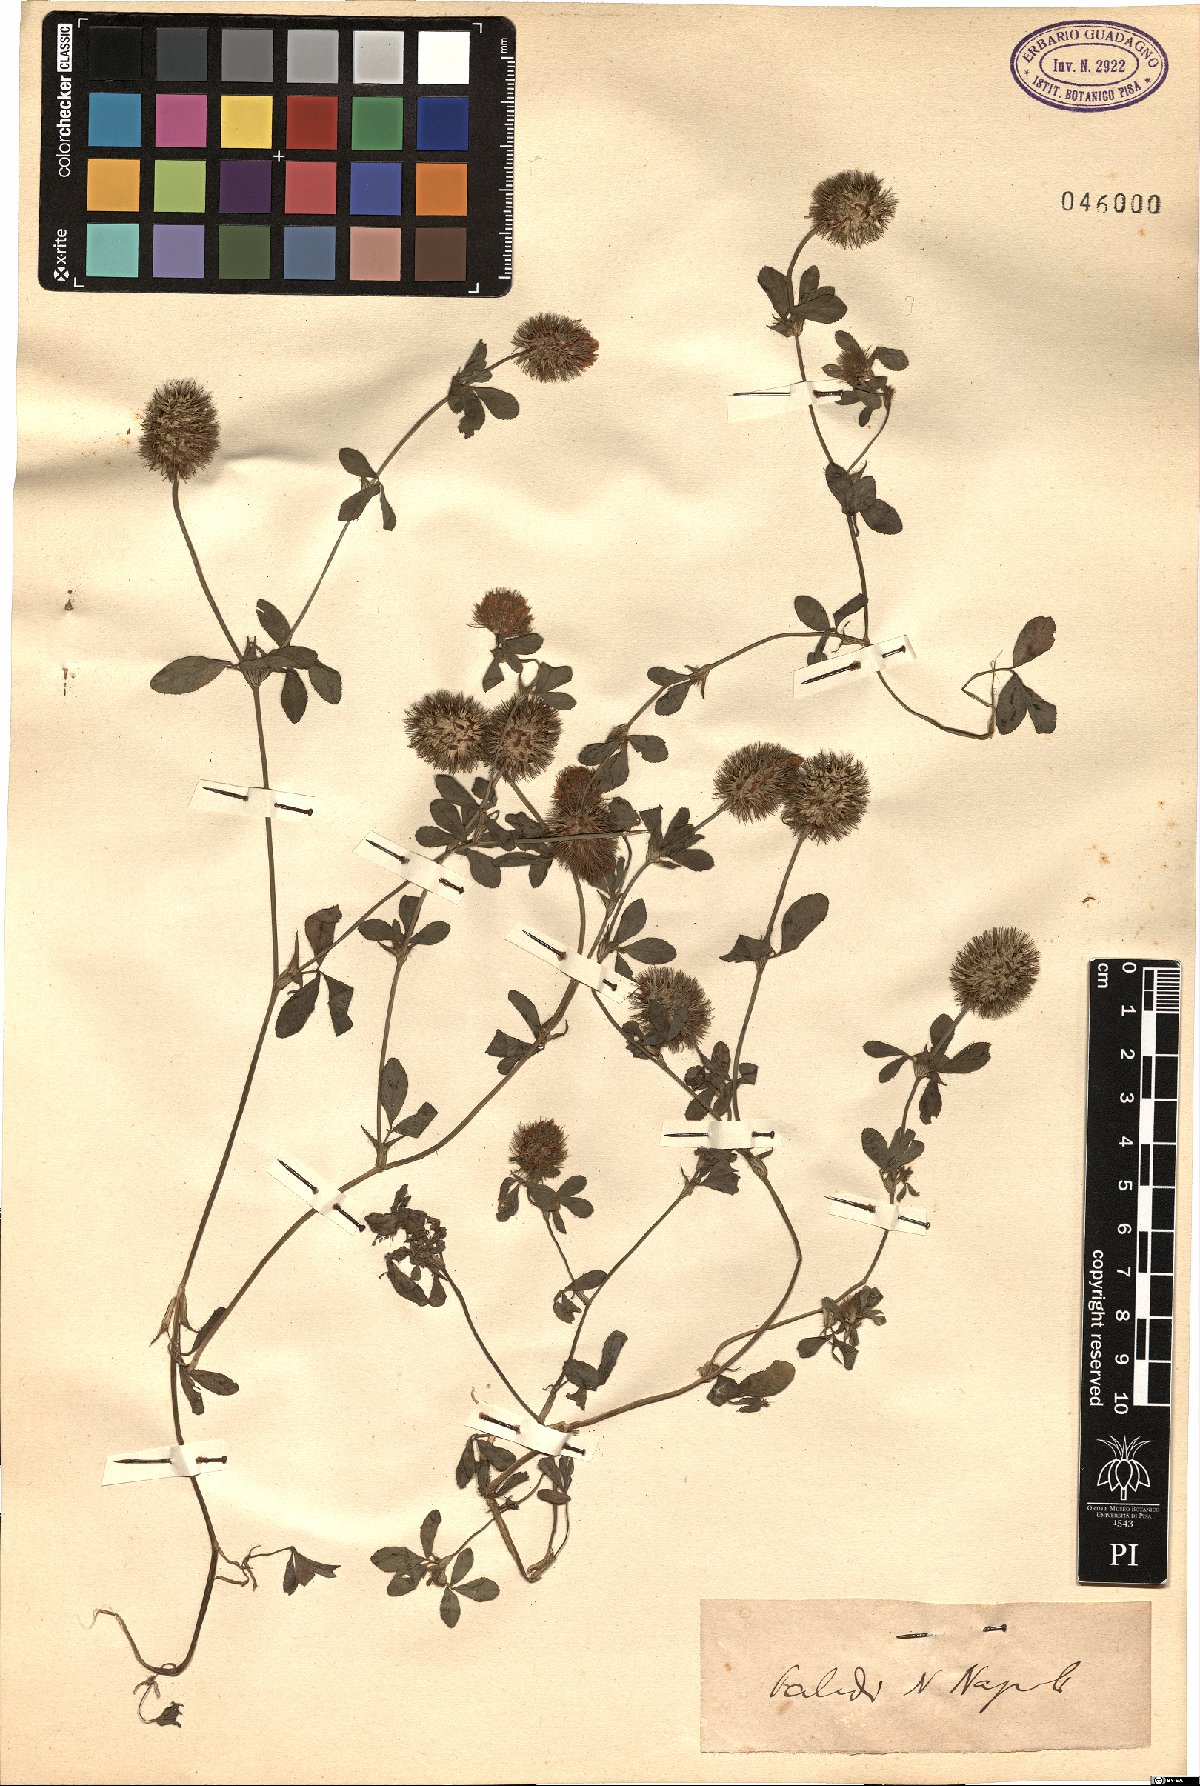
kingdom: Plantae
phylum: Tracheophyta
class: Magnoliopsida
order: Fabales
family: Fabaceae
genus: Trifolium
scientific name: Trifolium
